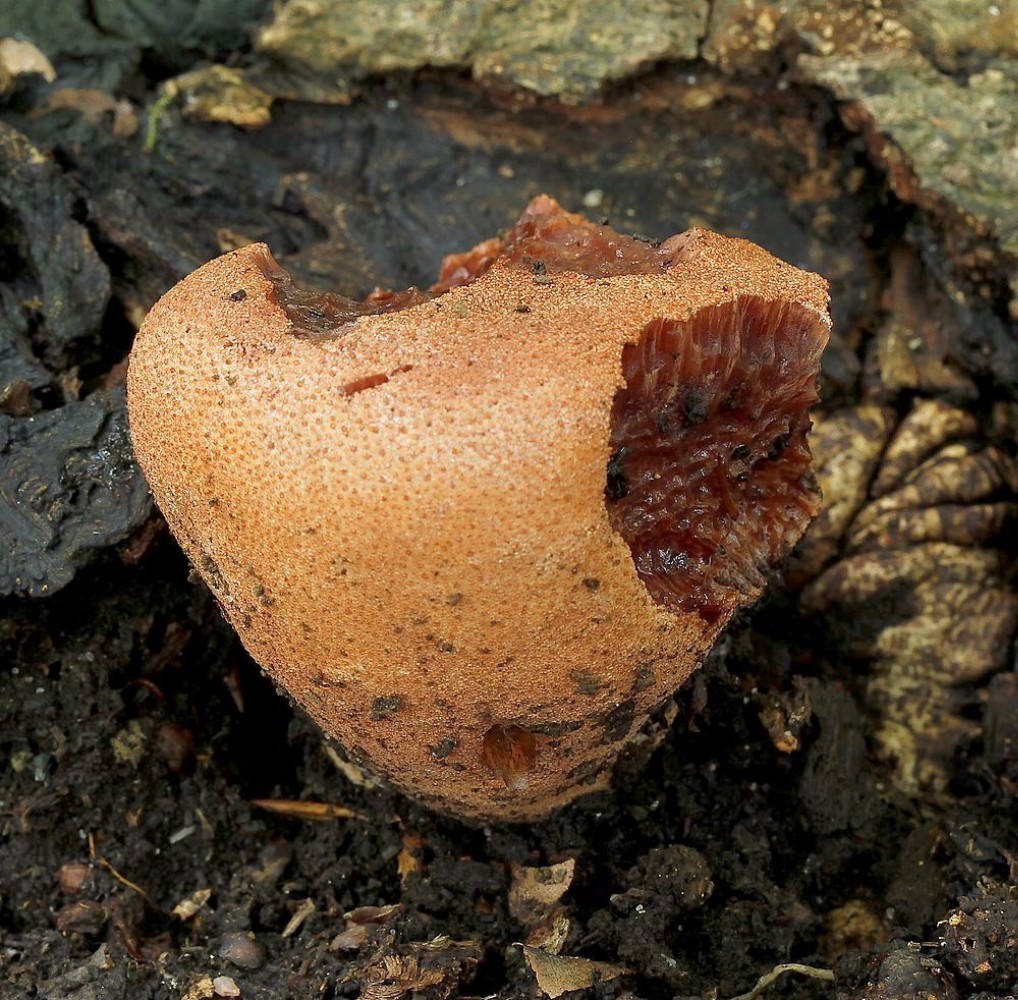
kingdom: Fungi
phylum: Basidiomycota
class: Agaricomycetes
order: Agaricales
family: Fistulinaceae
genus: Fistulina
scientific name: Fistulina hepatica
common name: oksetunge
